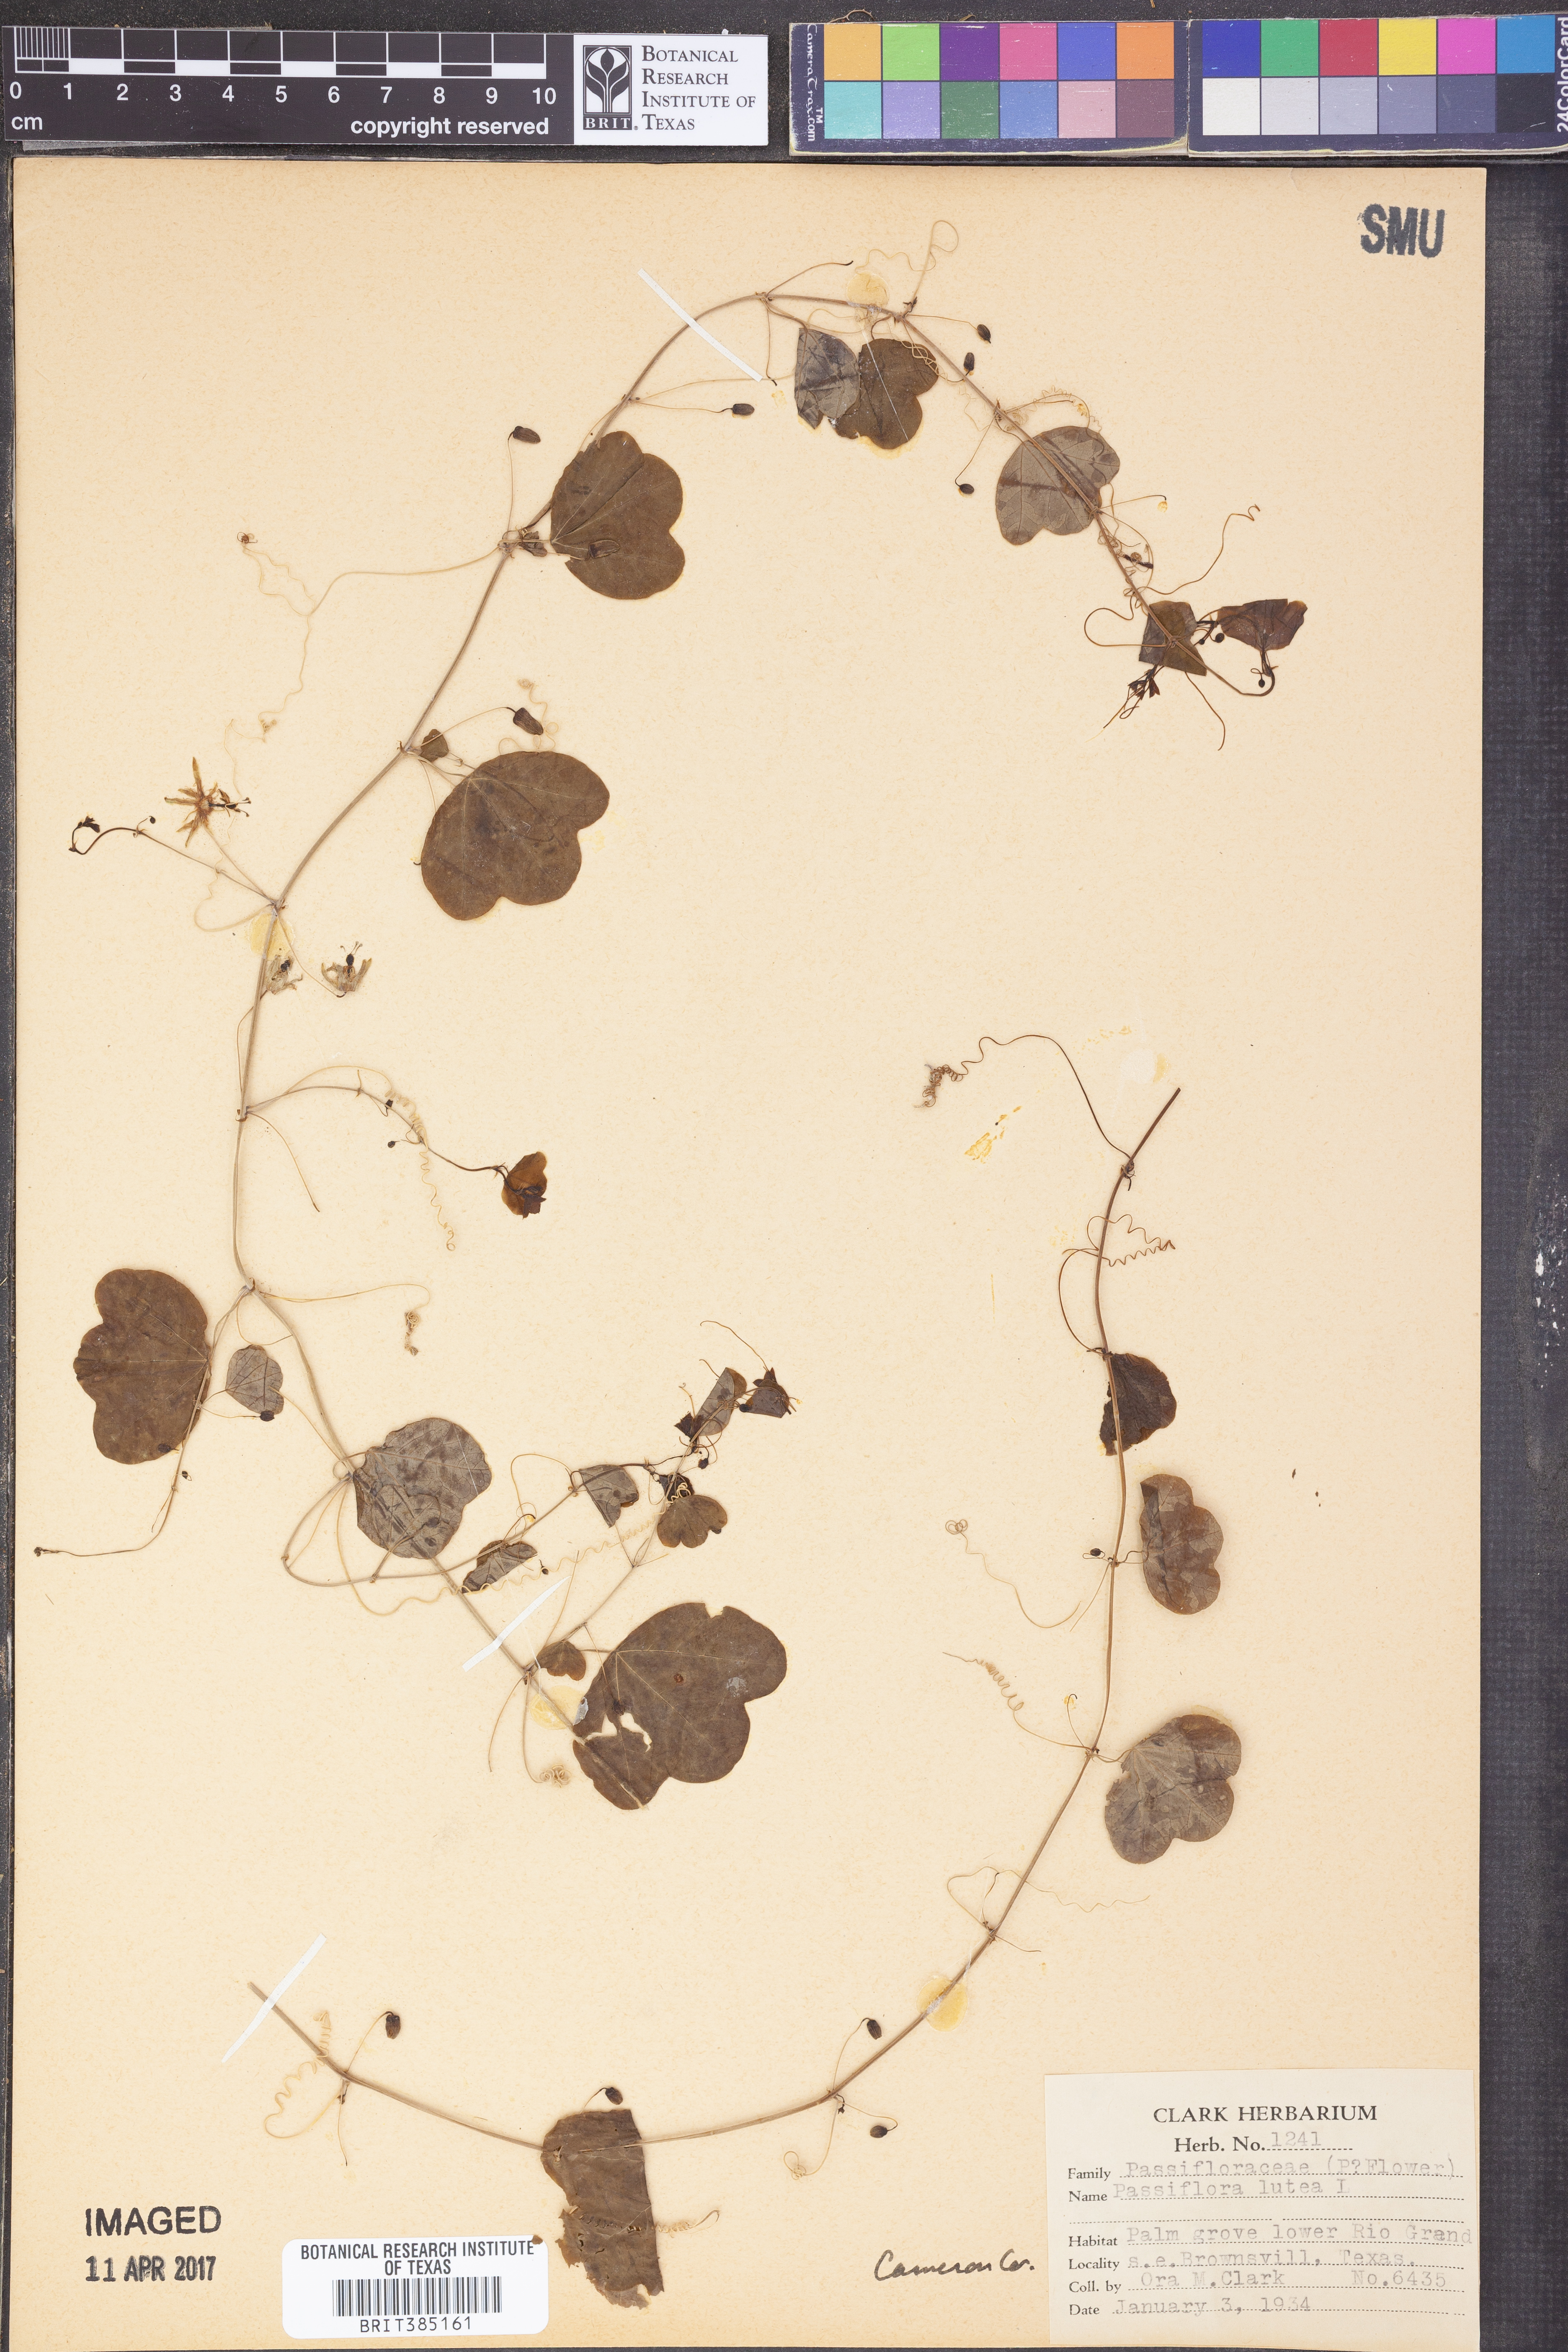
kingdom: Plantae
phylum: Tracheophyta
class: Magnoliopsida
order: Malpighiales
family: Passifloraceae
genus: Passiflora
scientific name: Passiflora lutea
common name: Yellow passionflower
